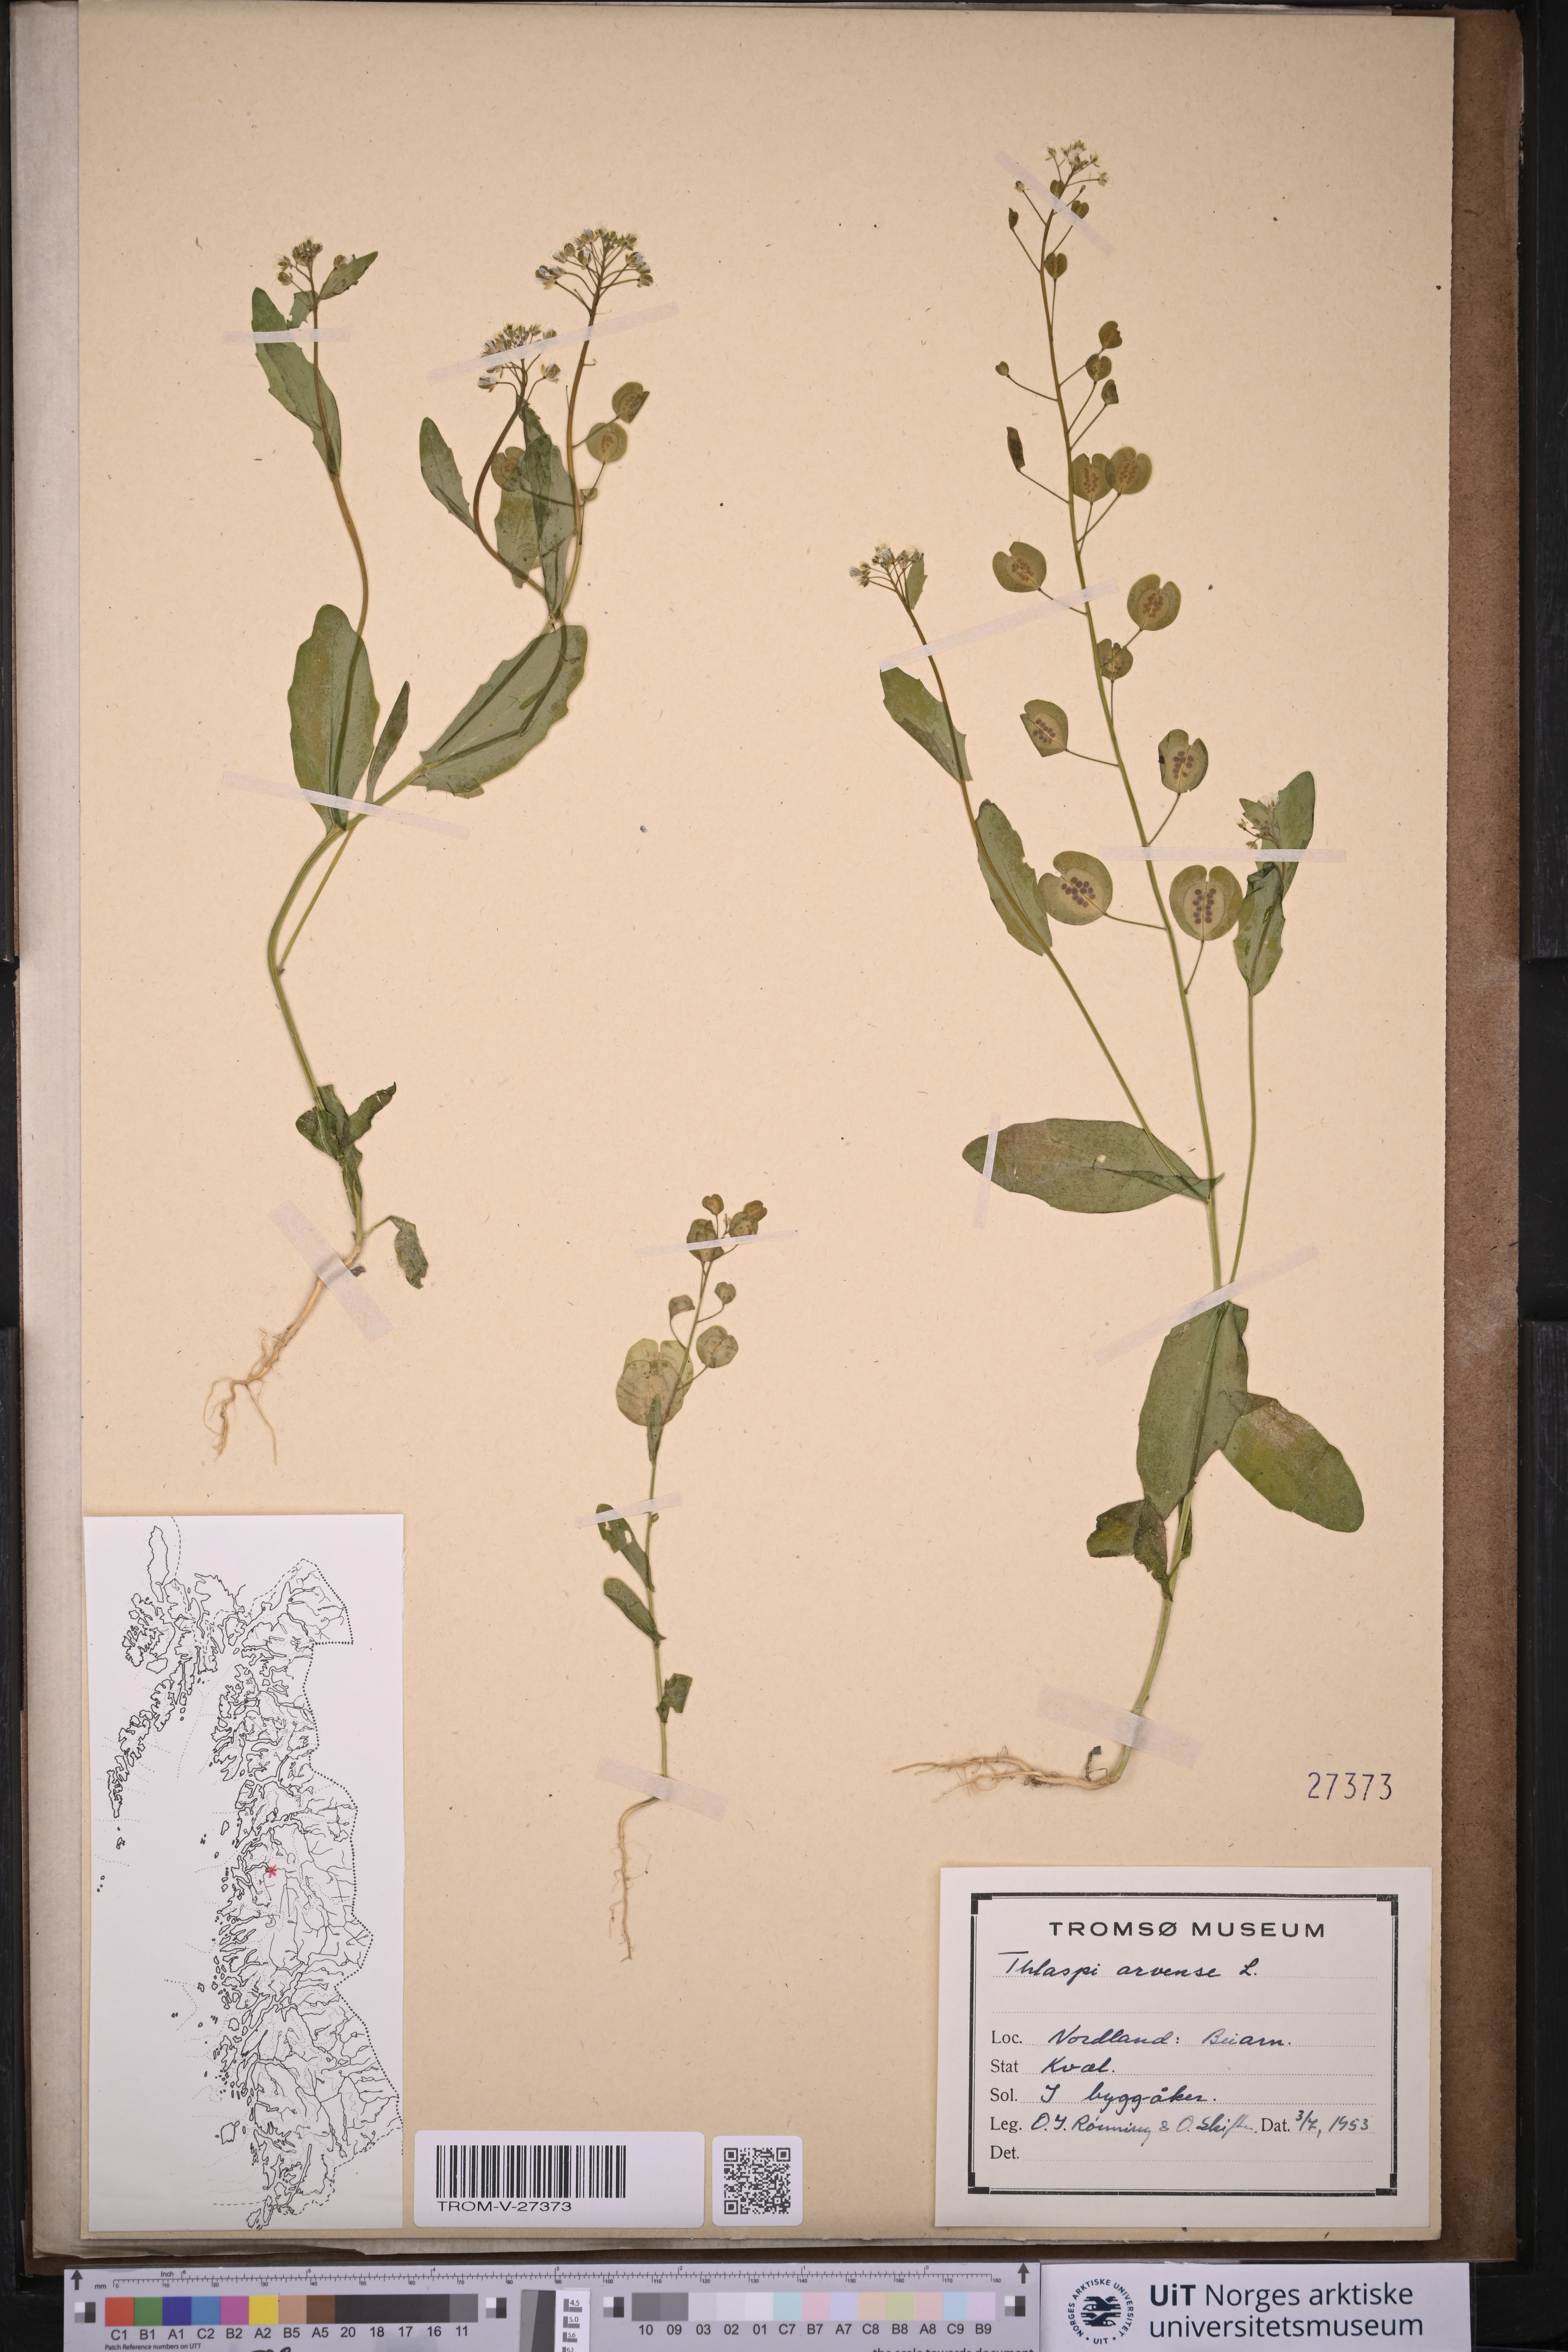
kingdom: Plantae
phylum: Tracheophyta
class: Magnoliopsida
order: Brassicales
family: Brassicaceae
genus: Thlaspi
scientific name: Thlaspi arvense
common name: Field pennycress
